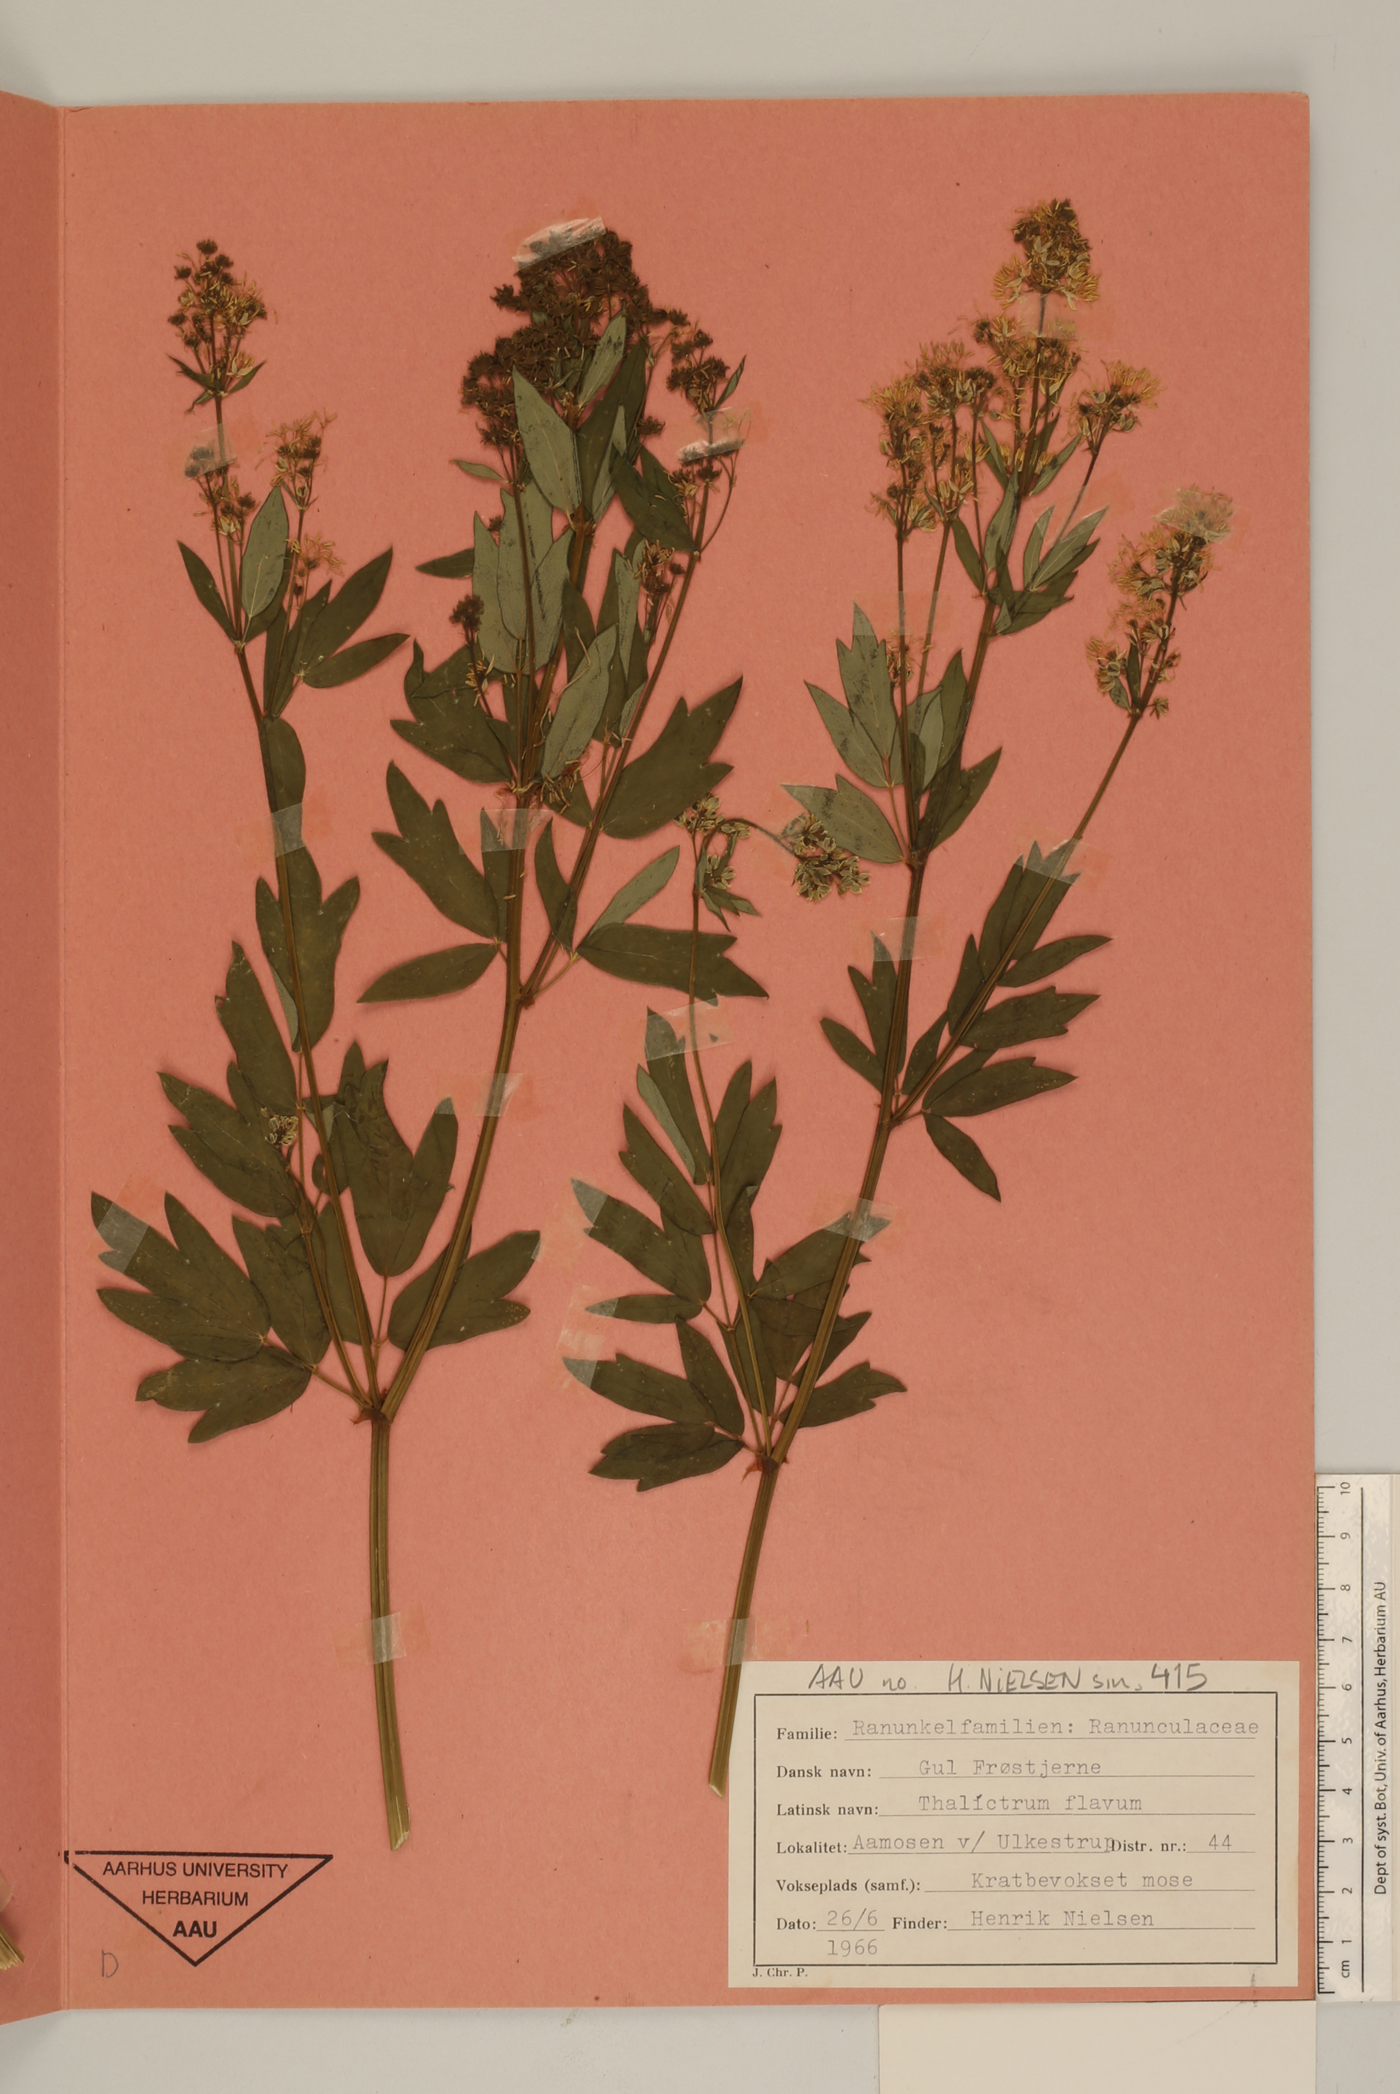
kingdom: Plantae
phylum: Tracheophyta
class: Magnoliopsida
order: Ranunculales
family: Ranunculaceae
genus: Thalictrum
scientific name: Thalictrum flavum
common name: Common meadow-rue
